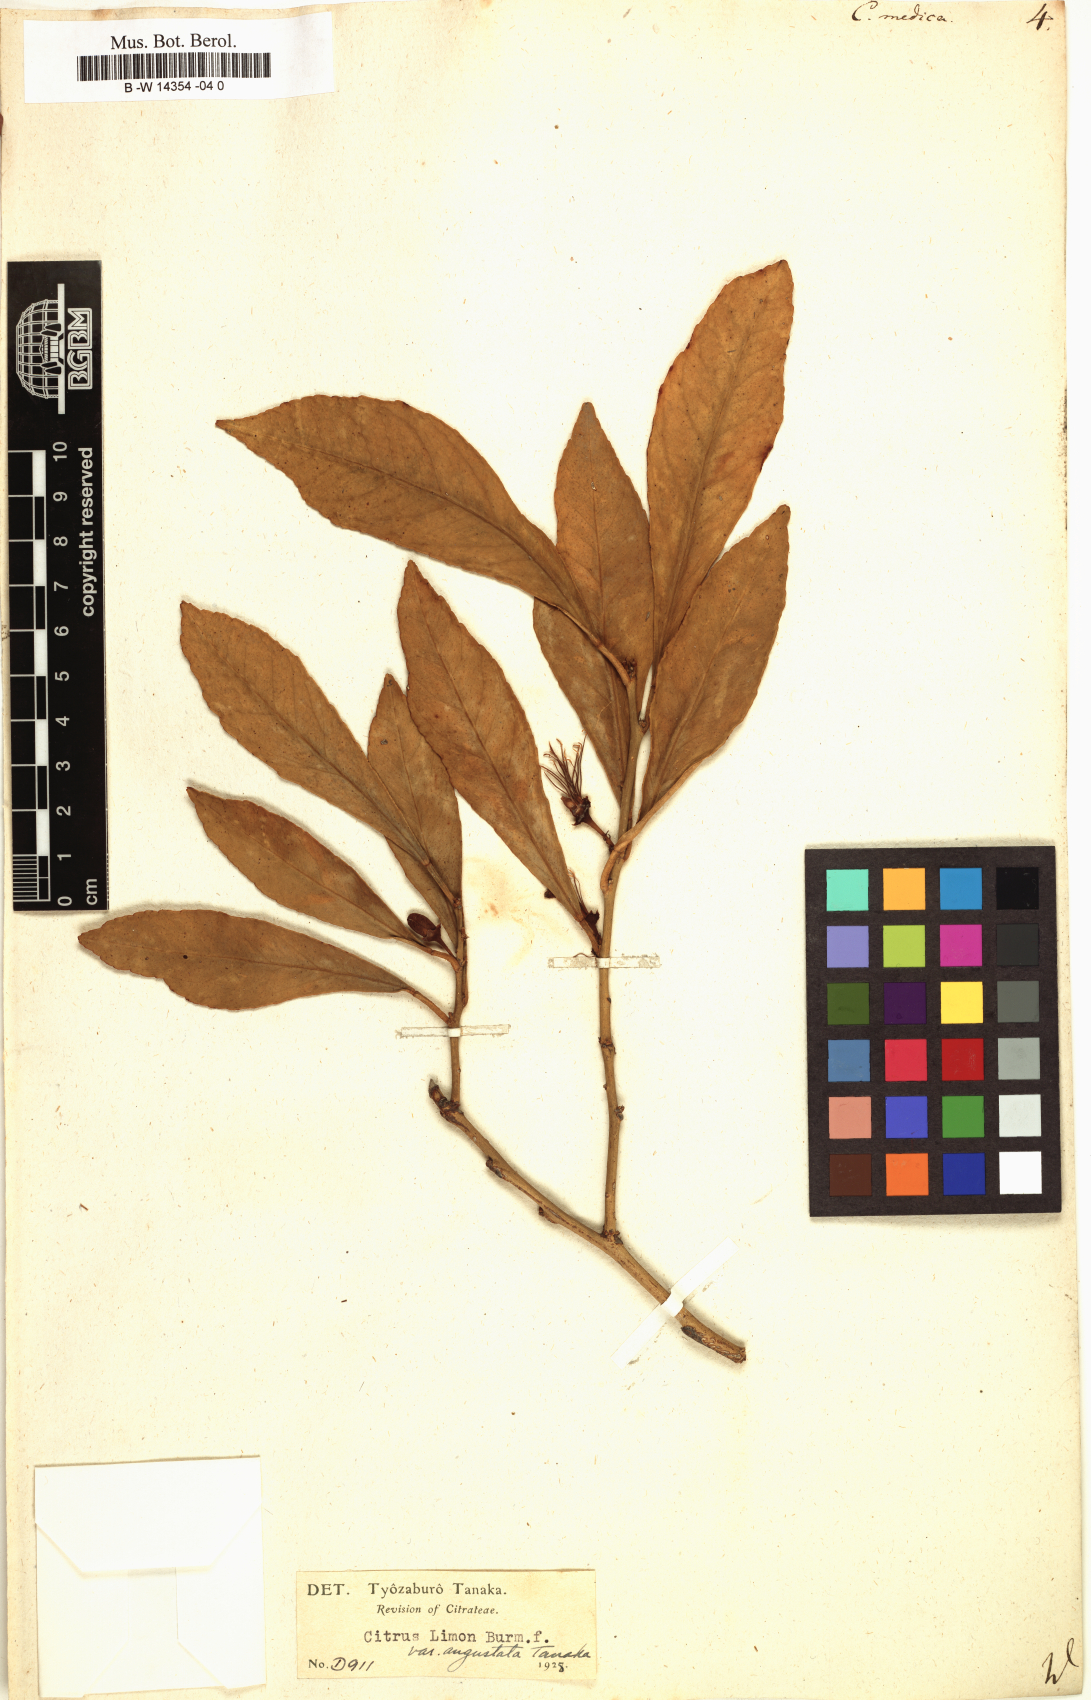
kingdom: Plantae
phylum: Tracheophyta
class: Magnoliopsida
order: Sapindales
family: Rutaceae
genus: Citrus
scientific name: Citrus medica
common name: Citron
